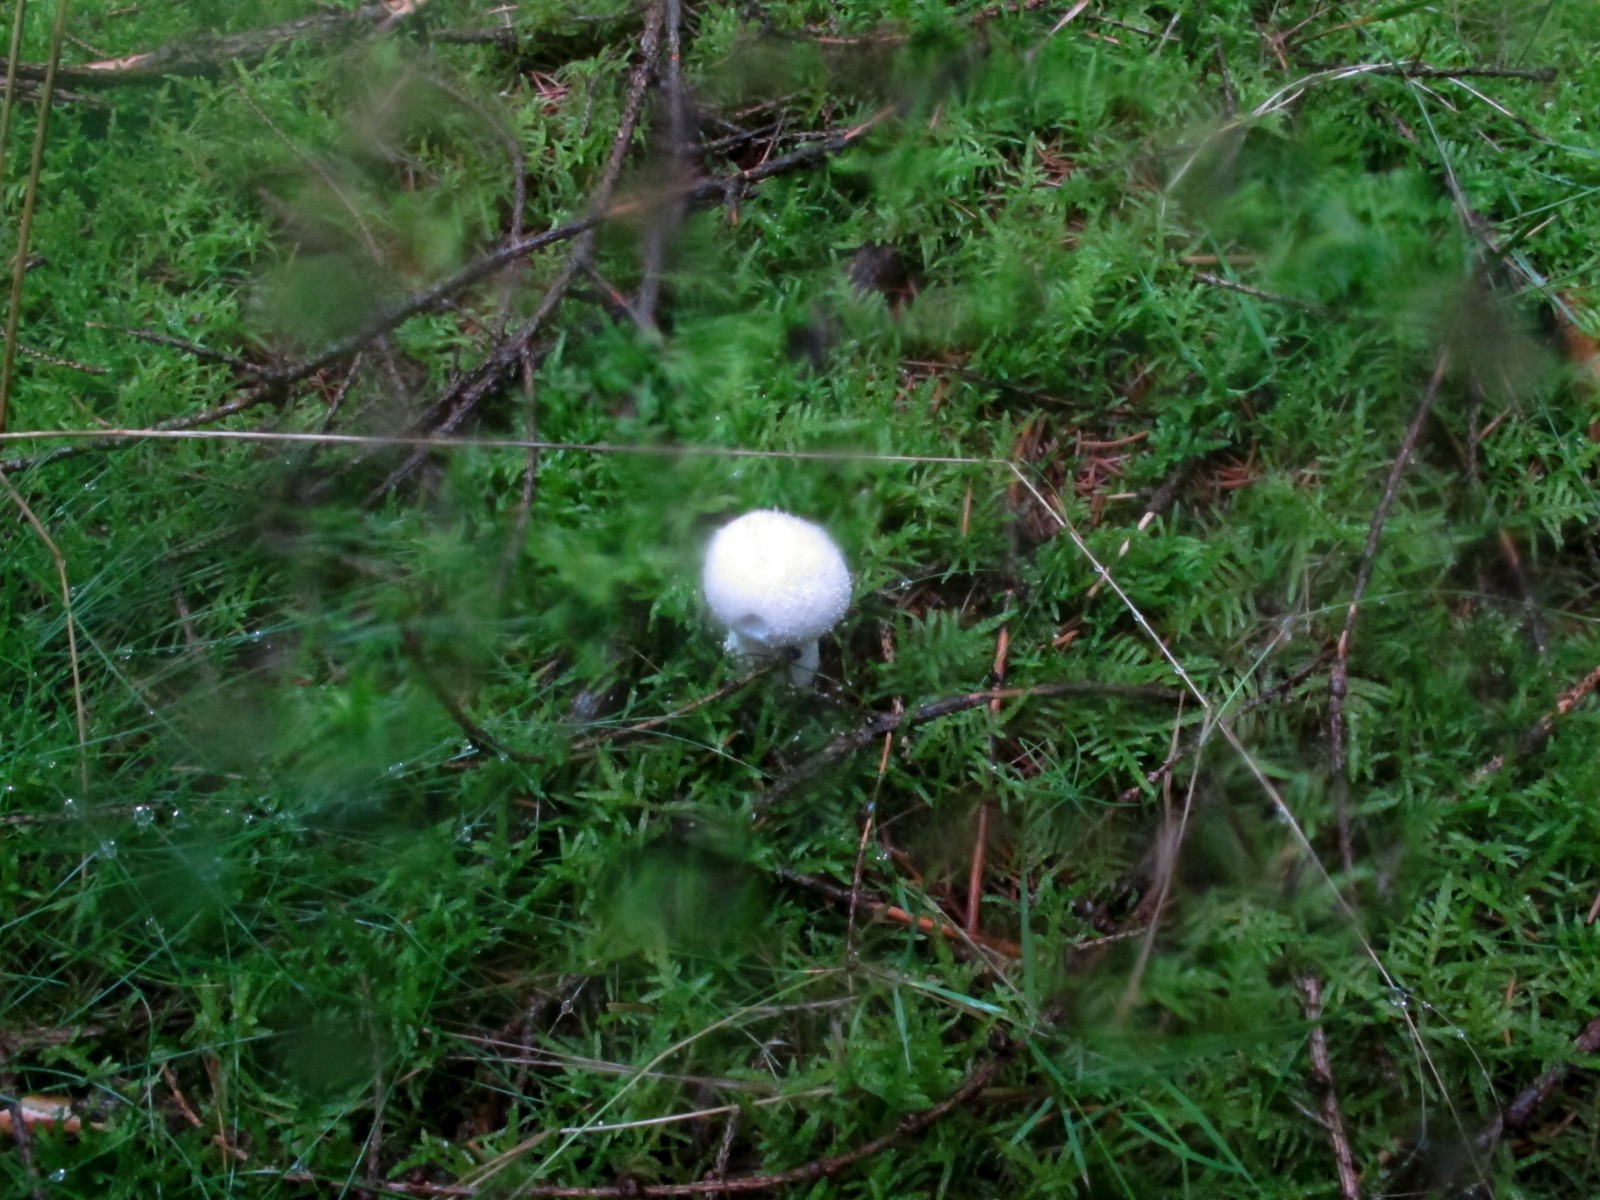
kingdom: Fungi
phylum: Basidiomycota
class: Agaricomycetes
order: Agaricales
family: Agaricaceae
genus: Lycoperdon
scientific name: Lycoperdon
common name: støvbold
